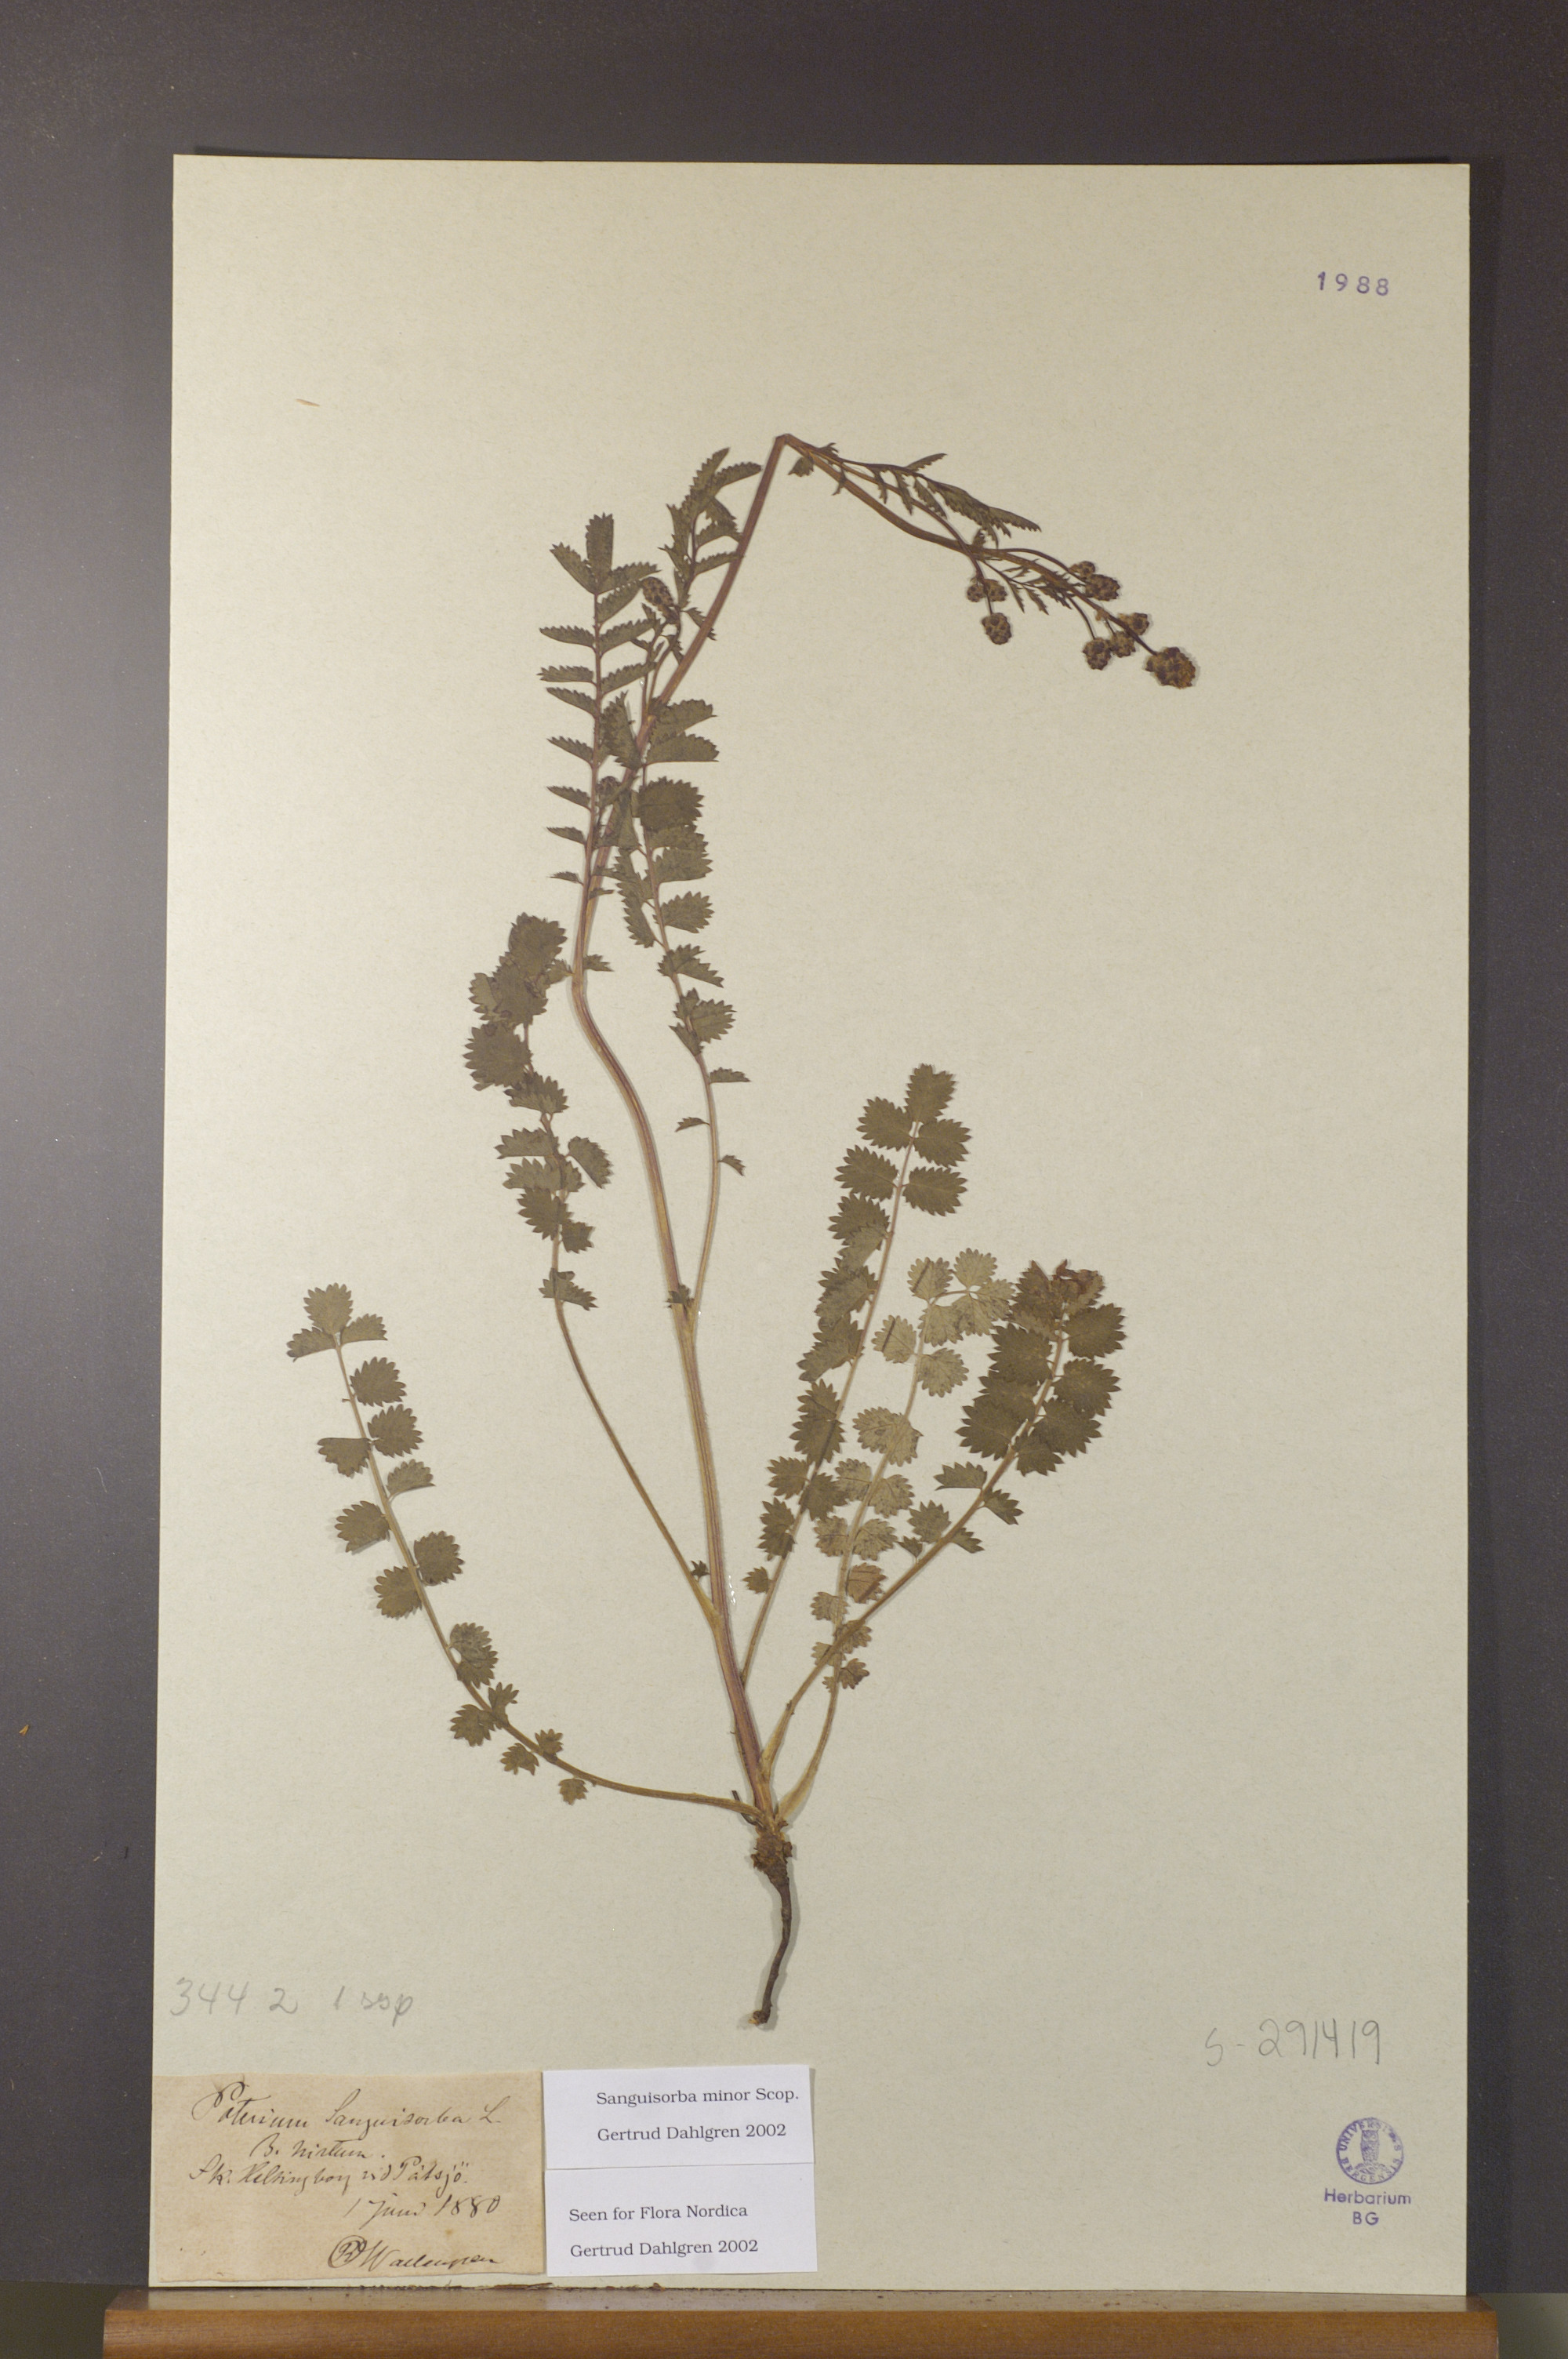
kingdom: Plantae
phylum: Tracheophyta
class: Magnoliopsida
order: Rosales
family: Rosaceae
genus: Poterium
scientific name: Poterium sanguisorba
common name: Salad burnet
